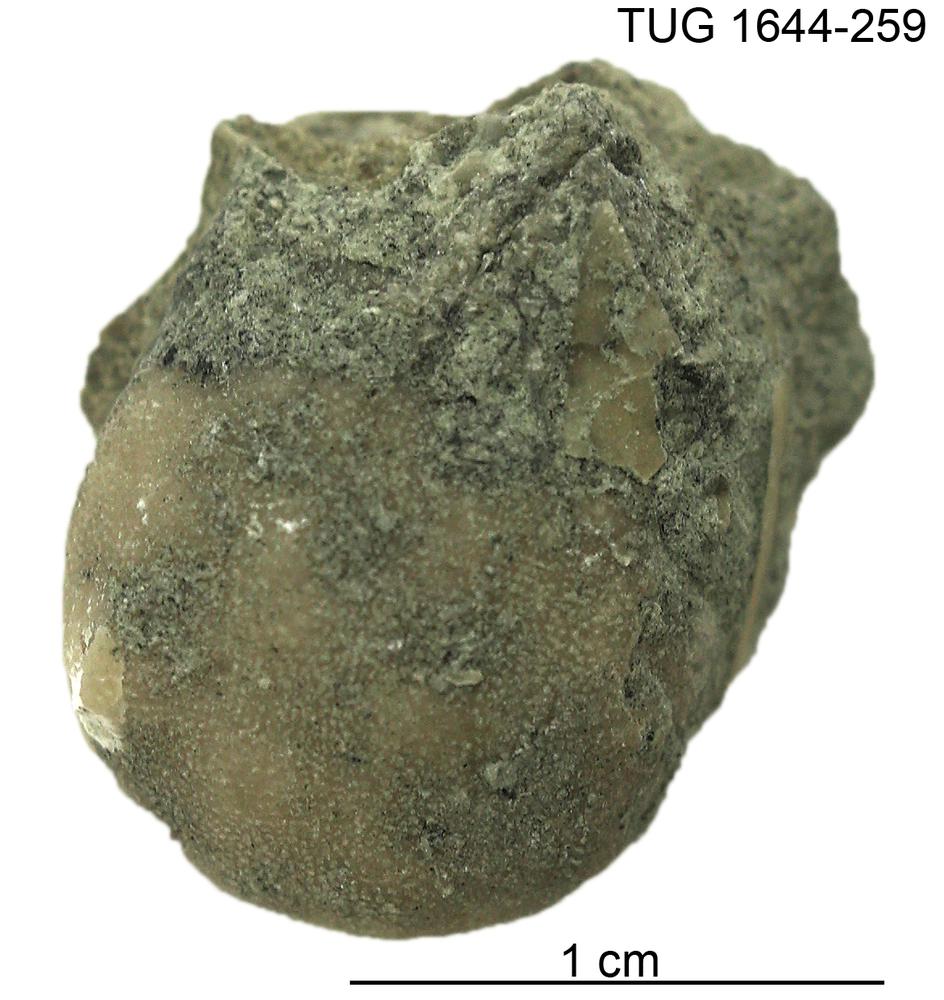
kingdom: Animalia
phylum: Bryozoa
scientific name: Bryozoa
